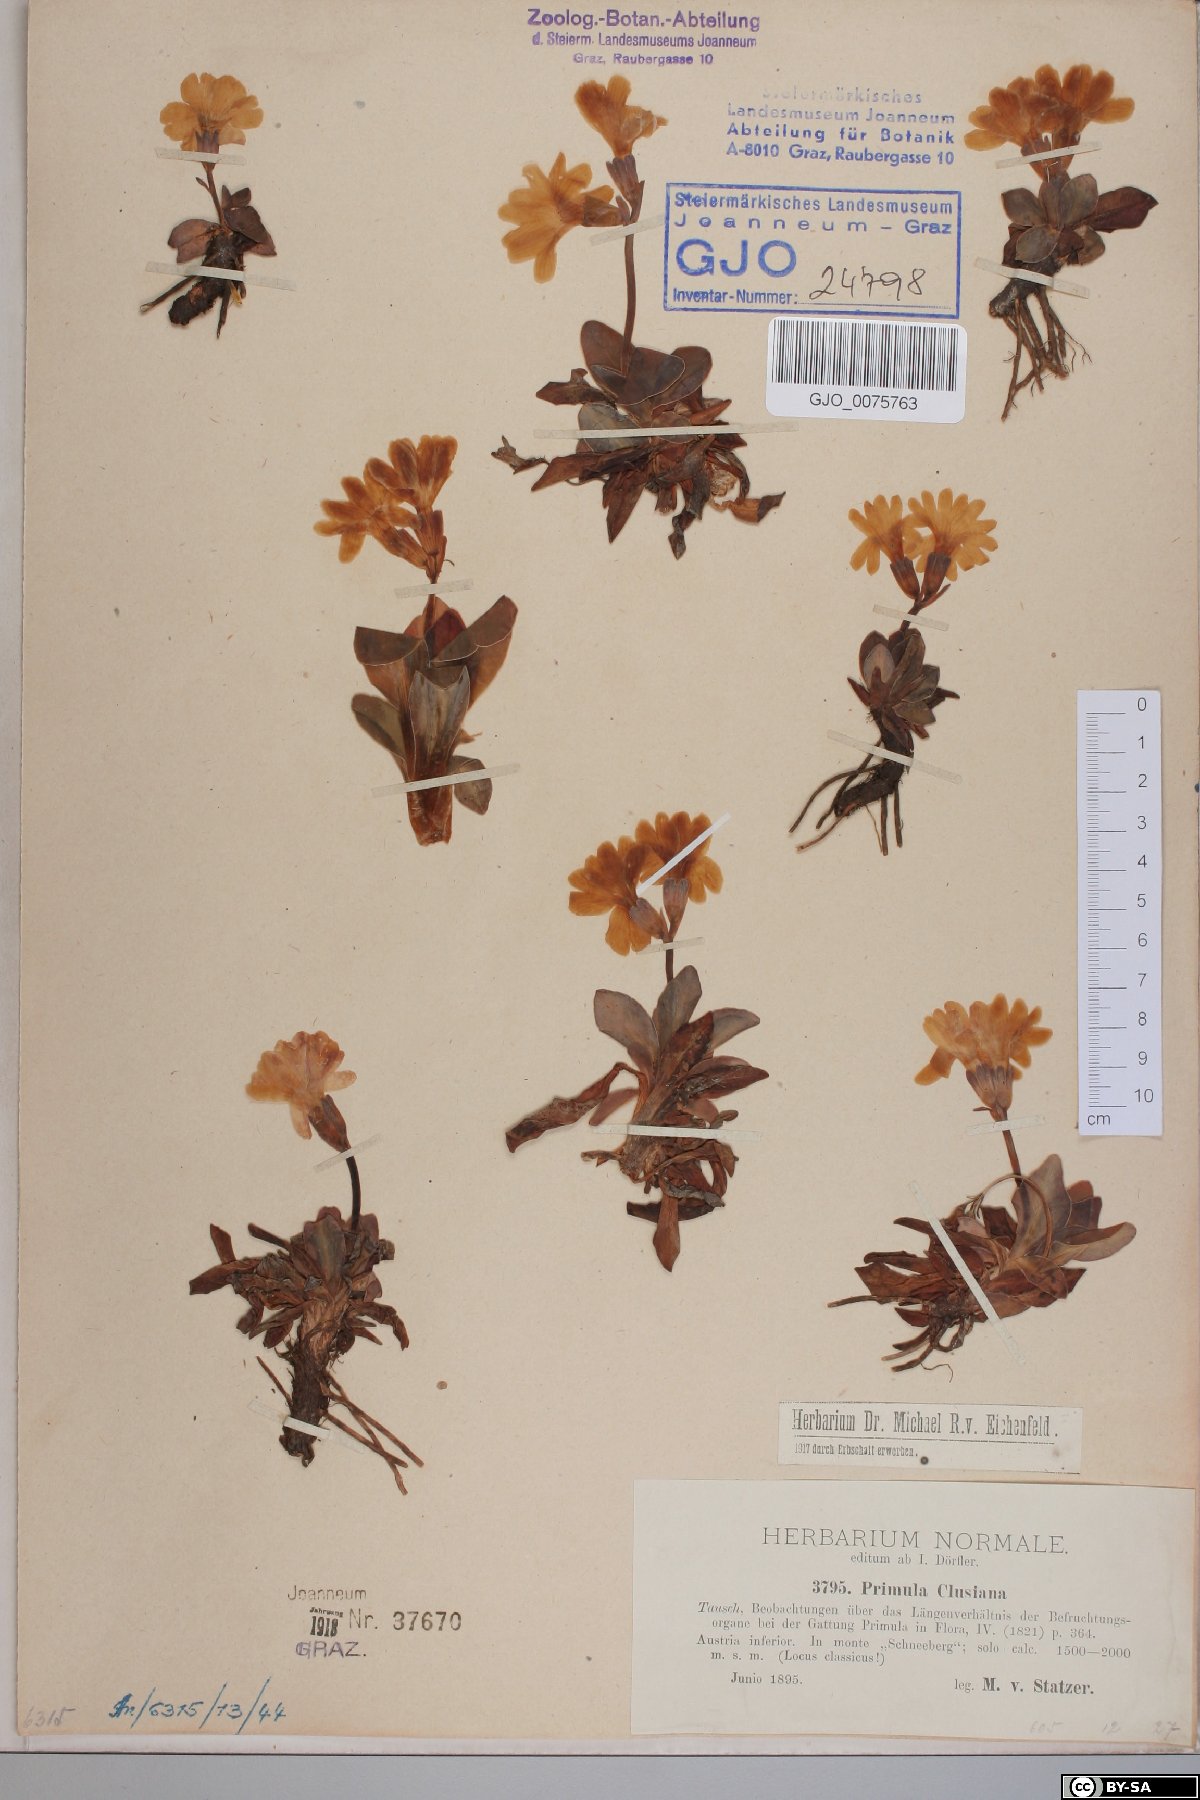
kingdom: Plantae
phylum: Tracheophyta
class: Magnoliopsida
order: Ericales
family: Primulaceae
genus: Primula
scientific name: Primula clusiana
